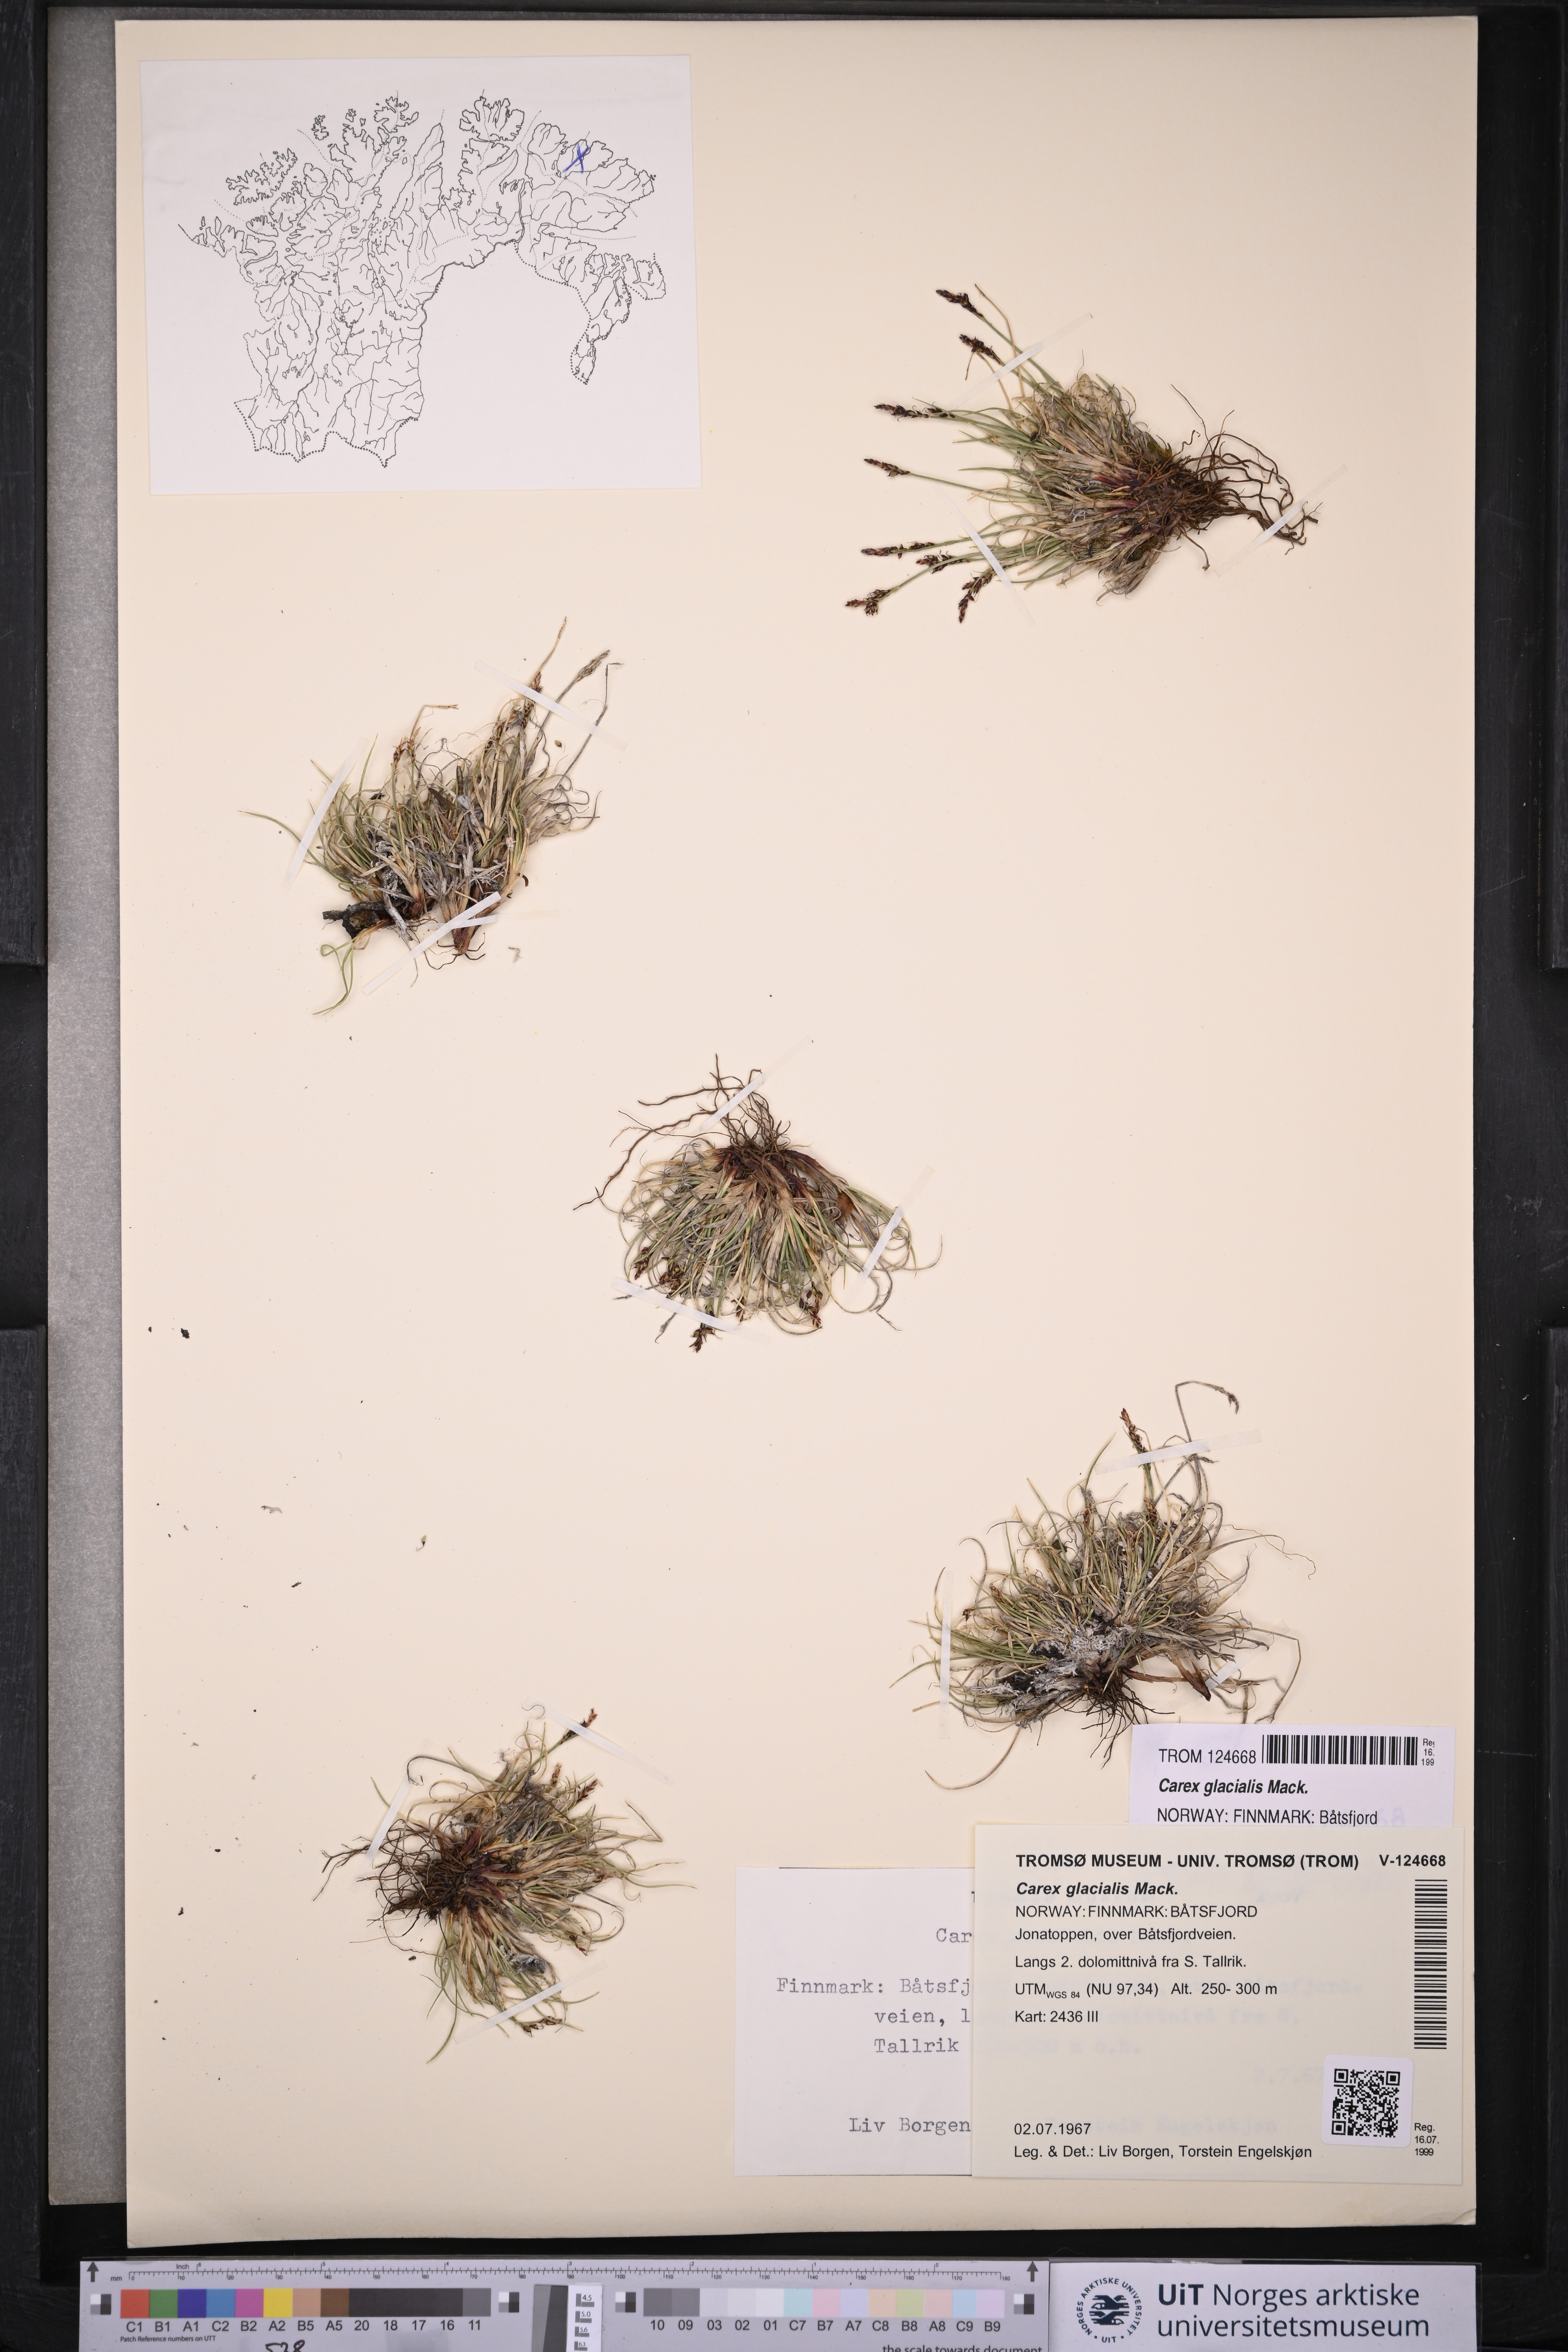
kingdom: Plantae
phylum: Tracheophyta
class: Liliopsida
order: Poales
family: Cyperaceae
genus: Carex
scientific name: Carex glacialis
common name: Newfoundland sedge
